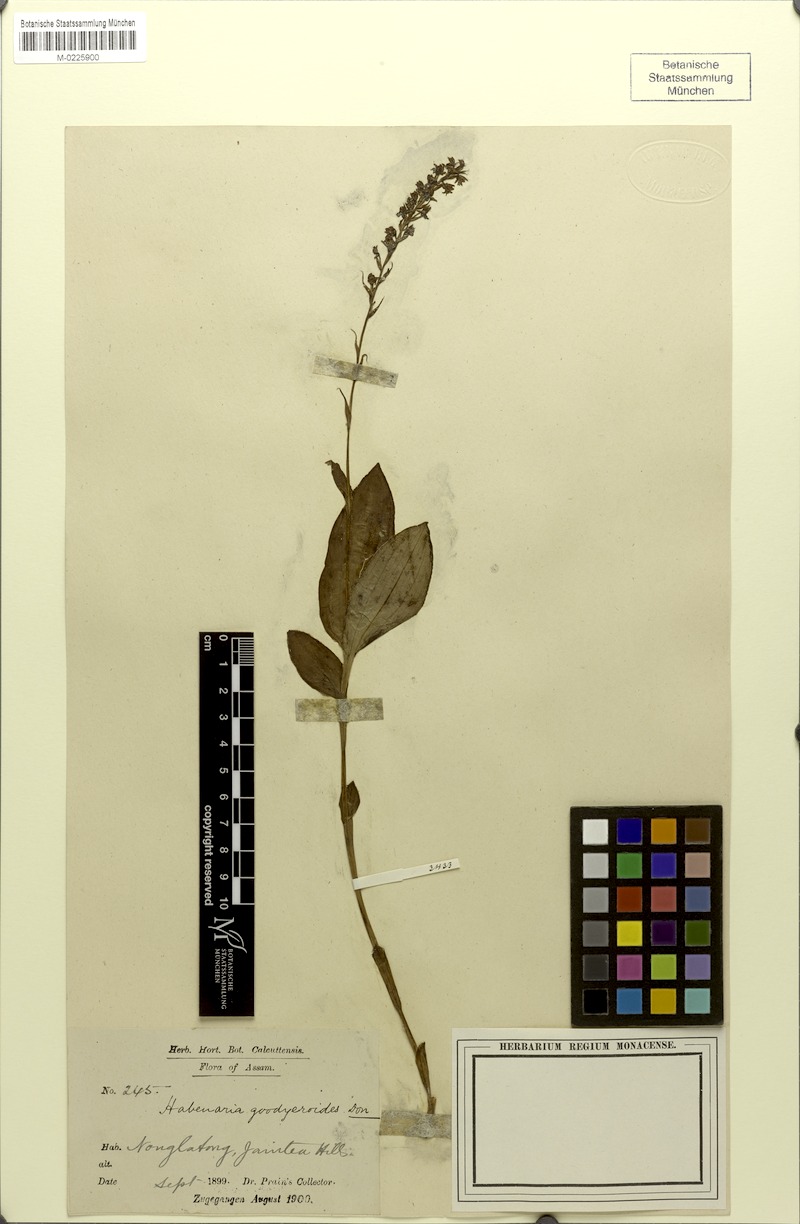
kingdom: Plantae
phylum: Tracheophyta
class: Liliopsida
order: Asparagales
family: Orchidaceae
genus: Peristylus
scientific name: Peristylus goodyeroides
